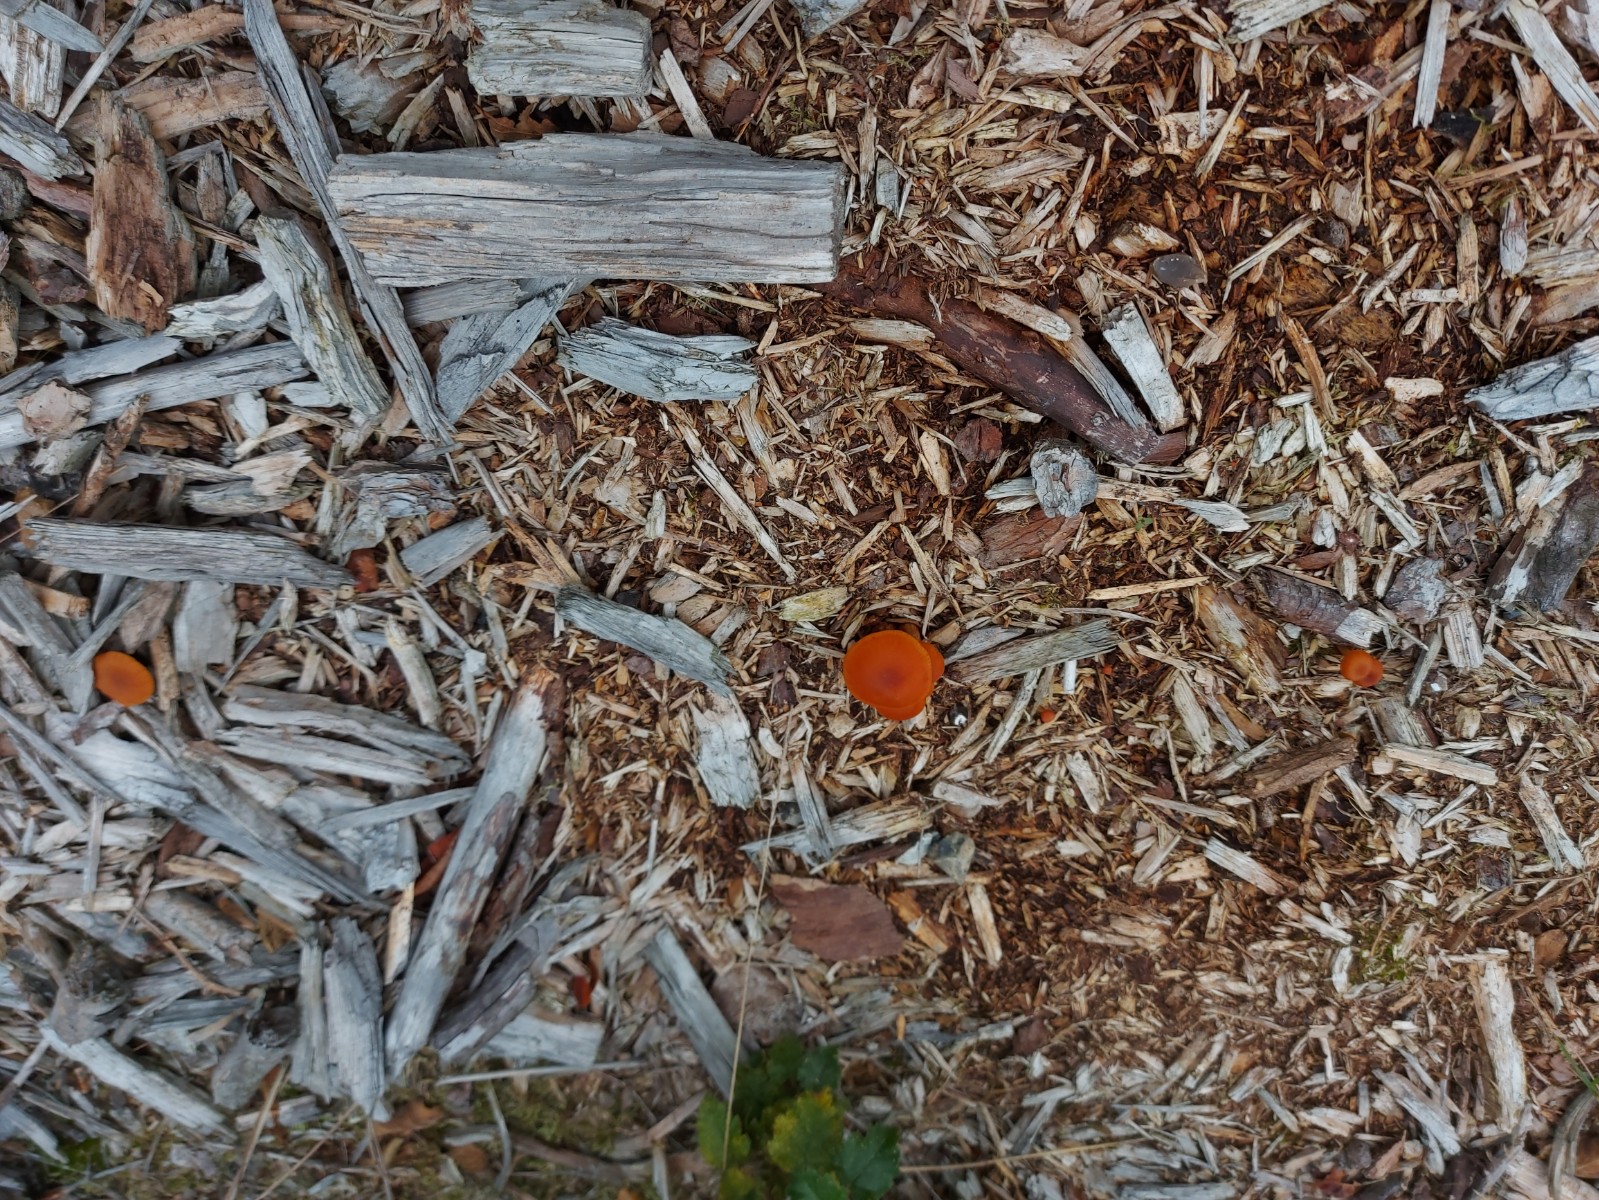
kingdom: Fungi
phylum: Basidiomycota
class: Agaricomycetes
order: Agaricales
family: Hydnangiaceae
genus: Laccaria
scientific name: Laccaria proxima
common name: stor ametysthat
